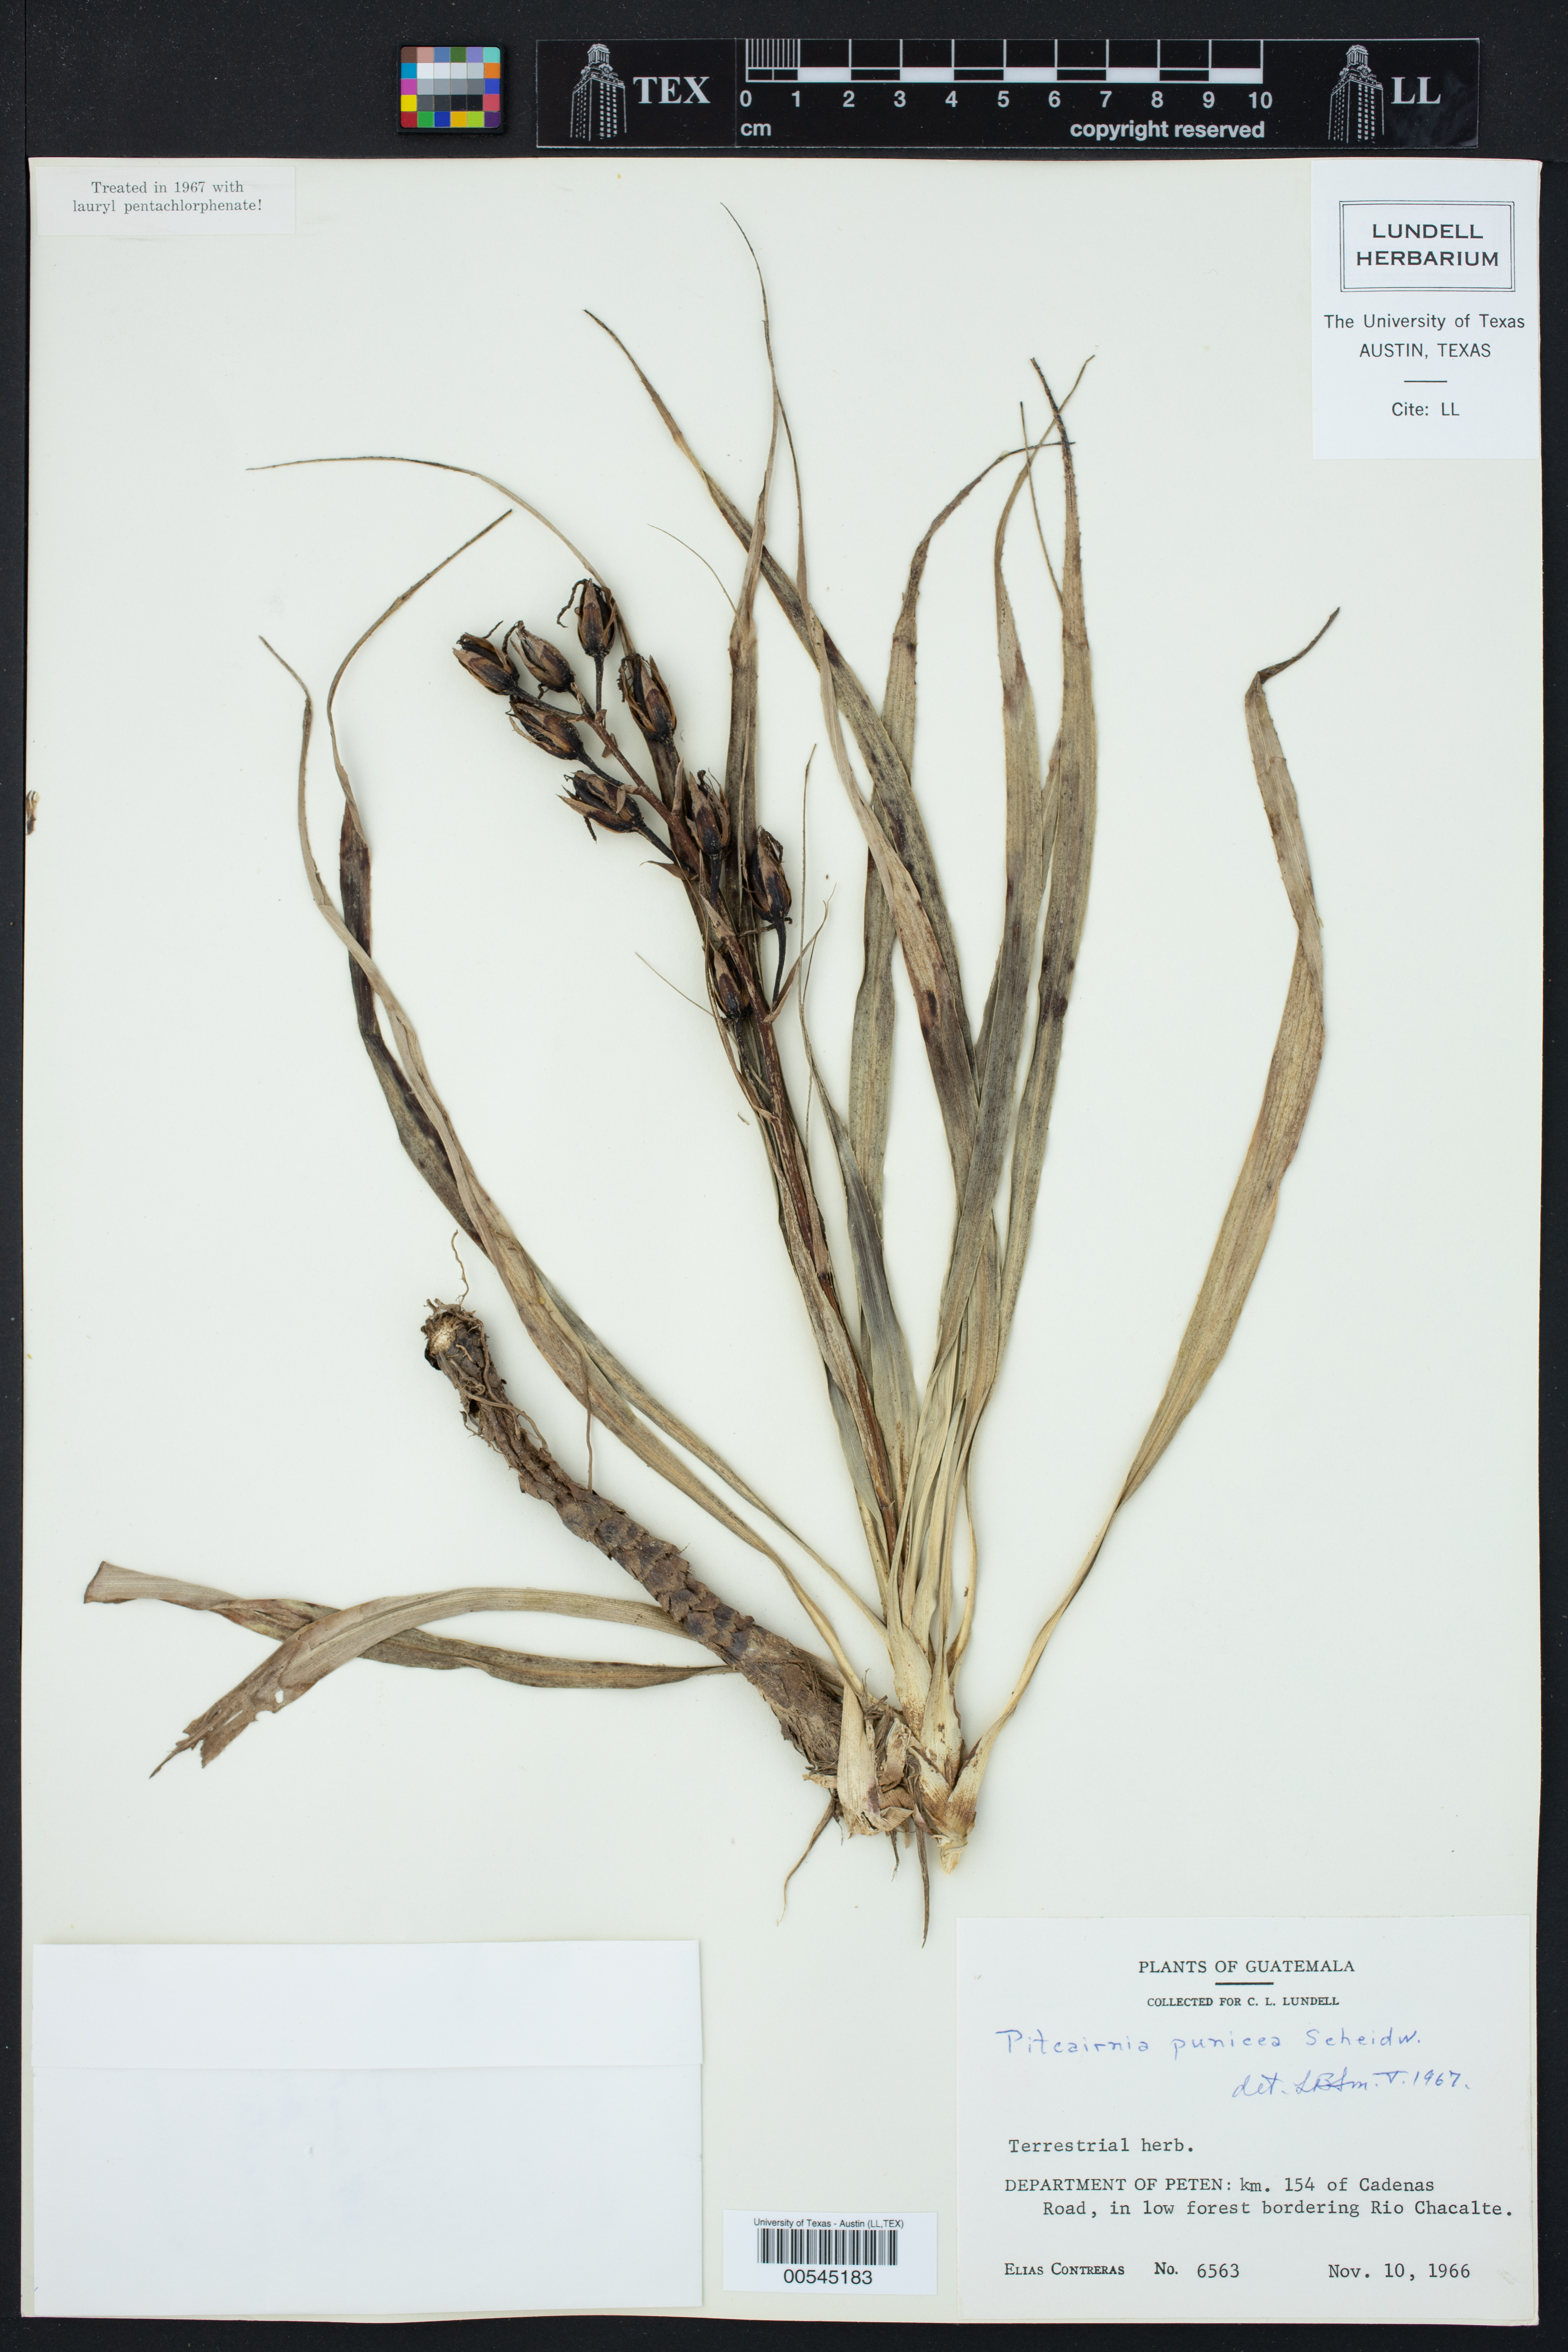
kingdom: Plantae
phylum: Tracheophyta
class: Liliopsida
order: Poales
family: Bromeliaceae
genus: Pitcairnia
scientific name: Pitcairnia punicea
